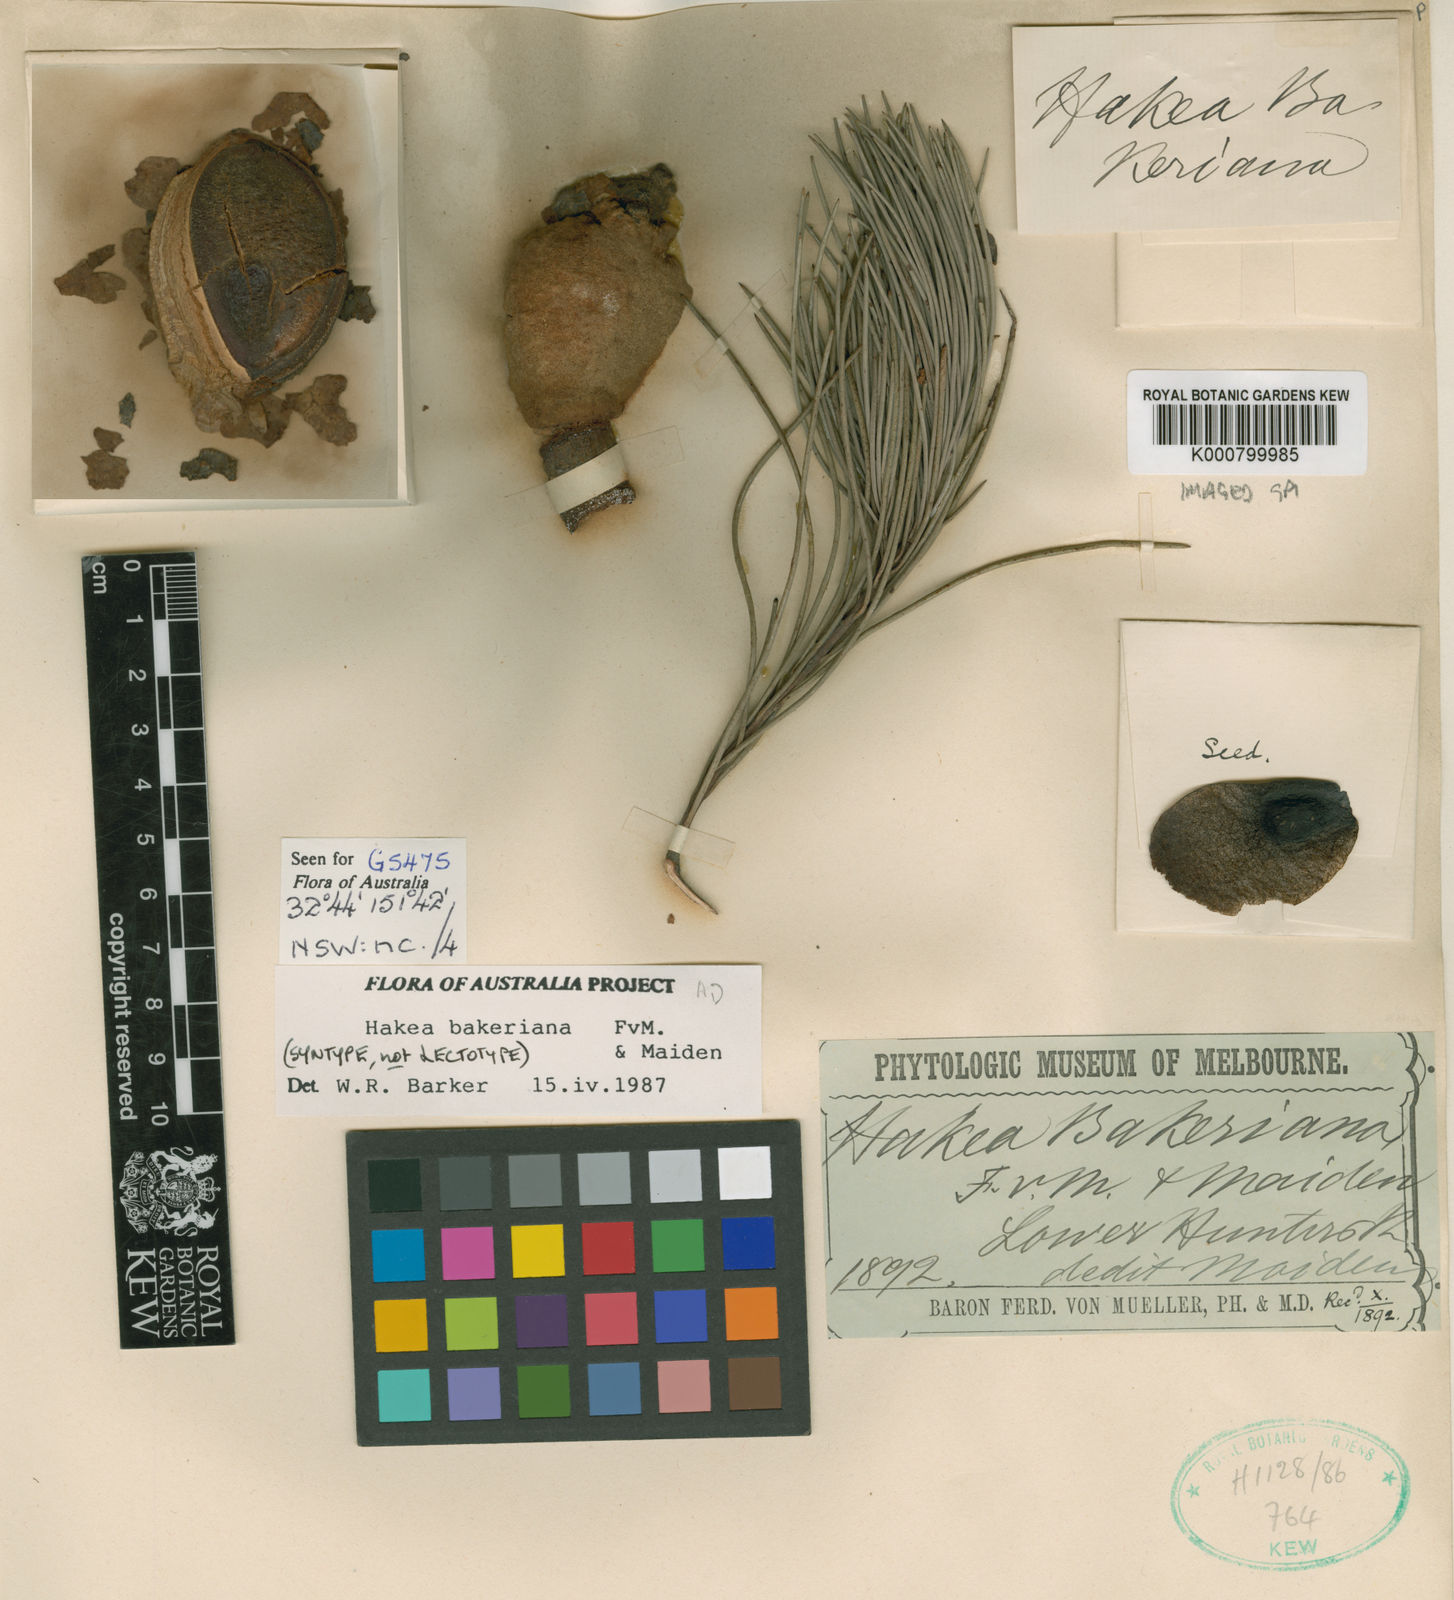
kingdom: Plantae
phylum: Tracheophyta
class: Magnoliopsida
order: Proteales
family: Proteaceae
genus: Hakea
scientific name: Hakea bakeriana
